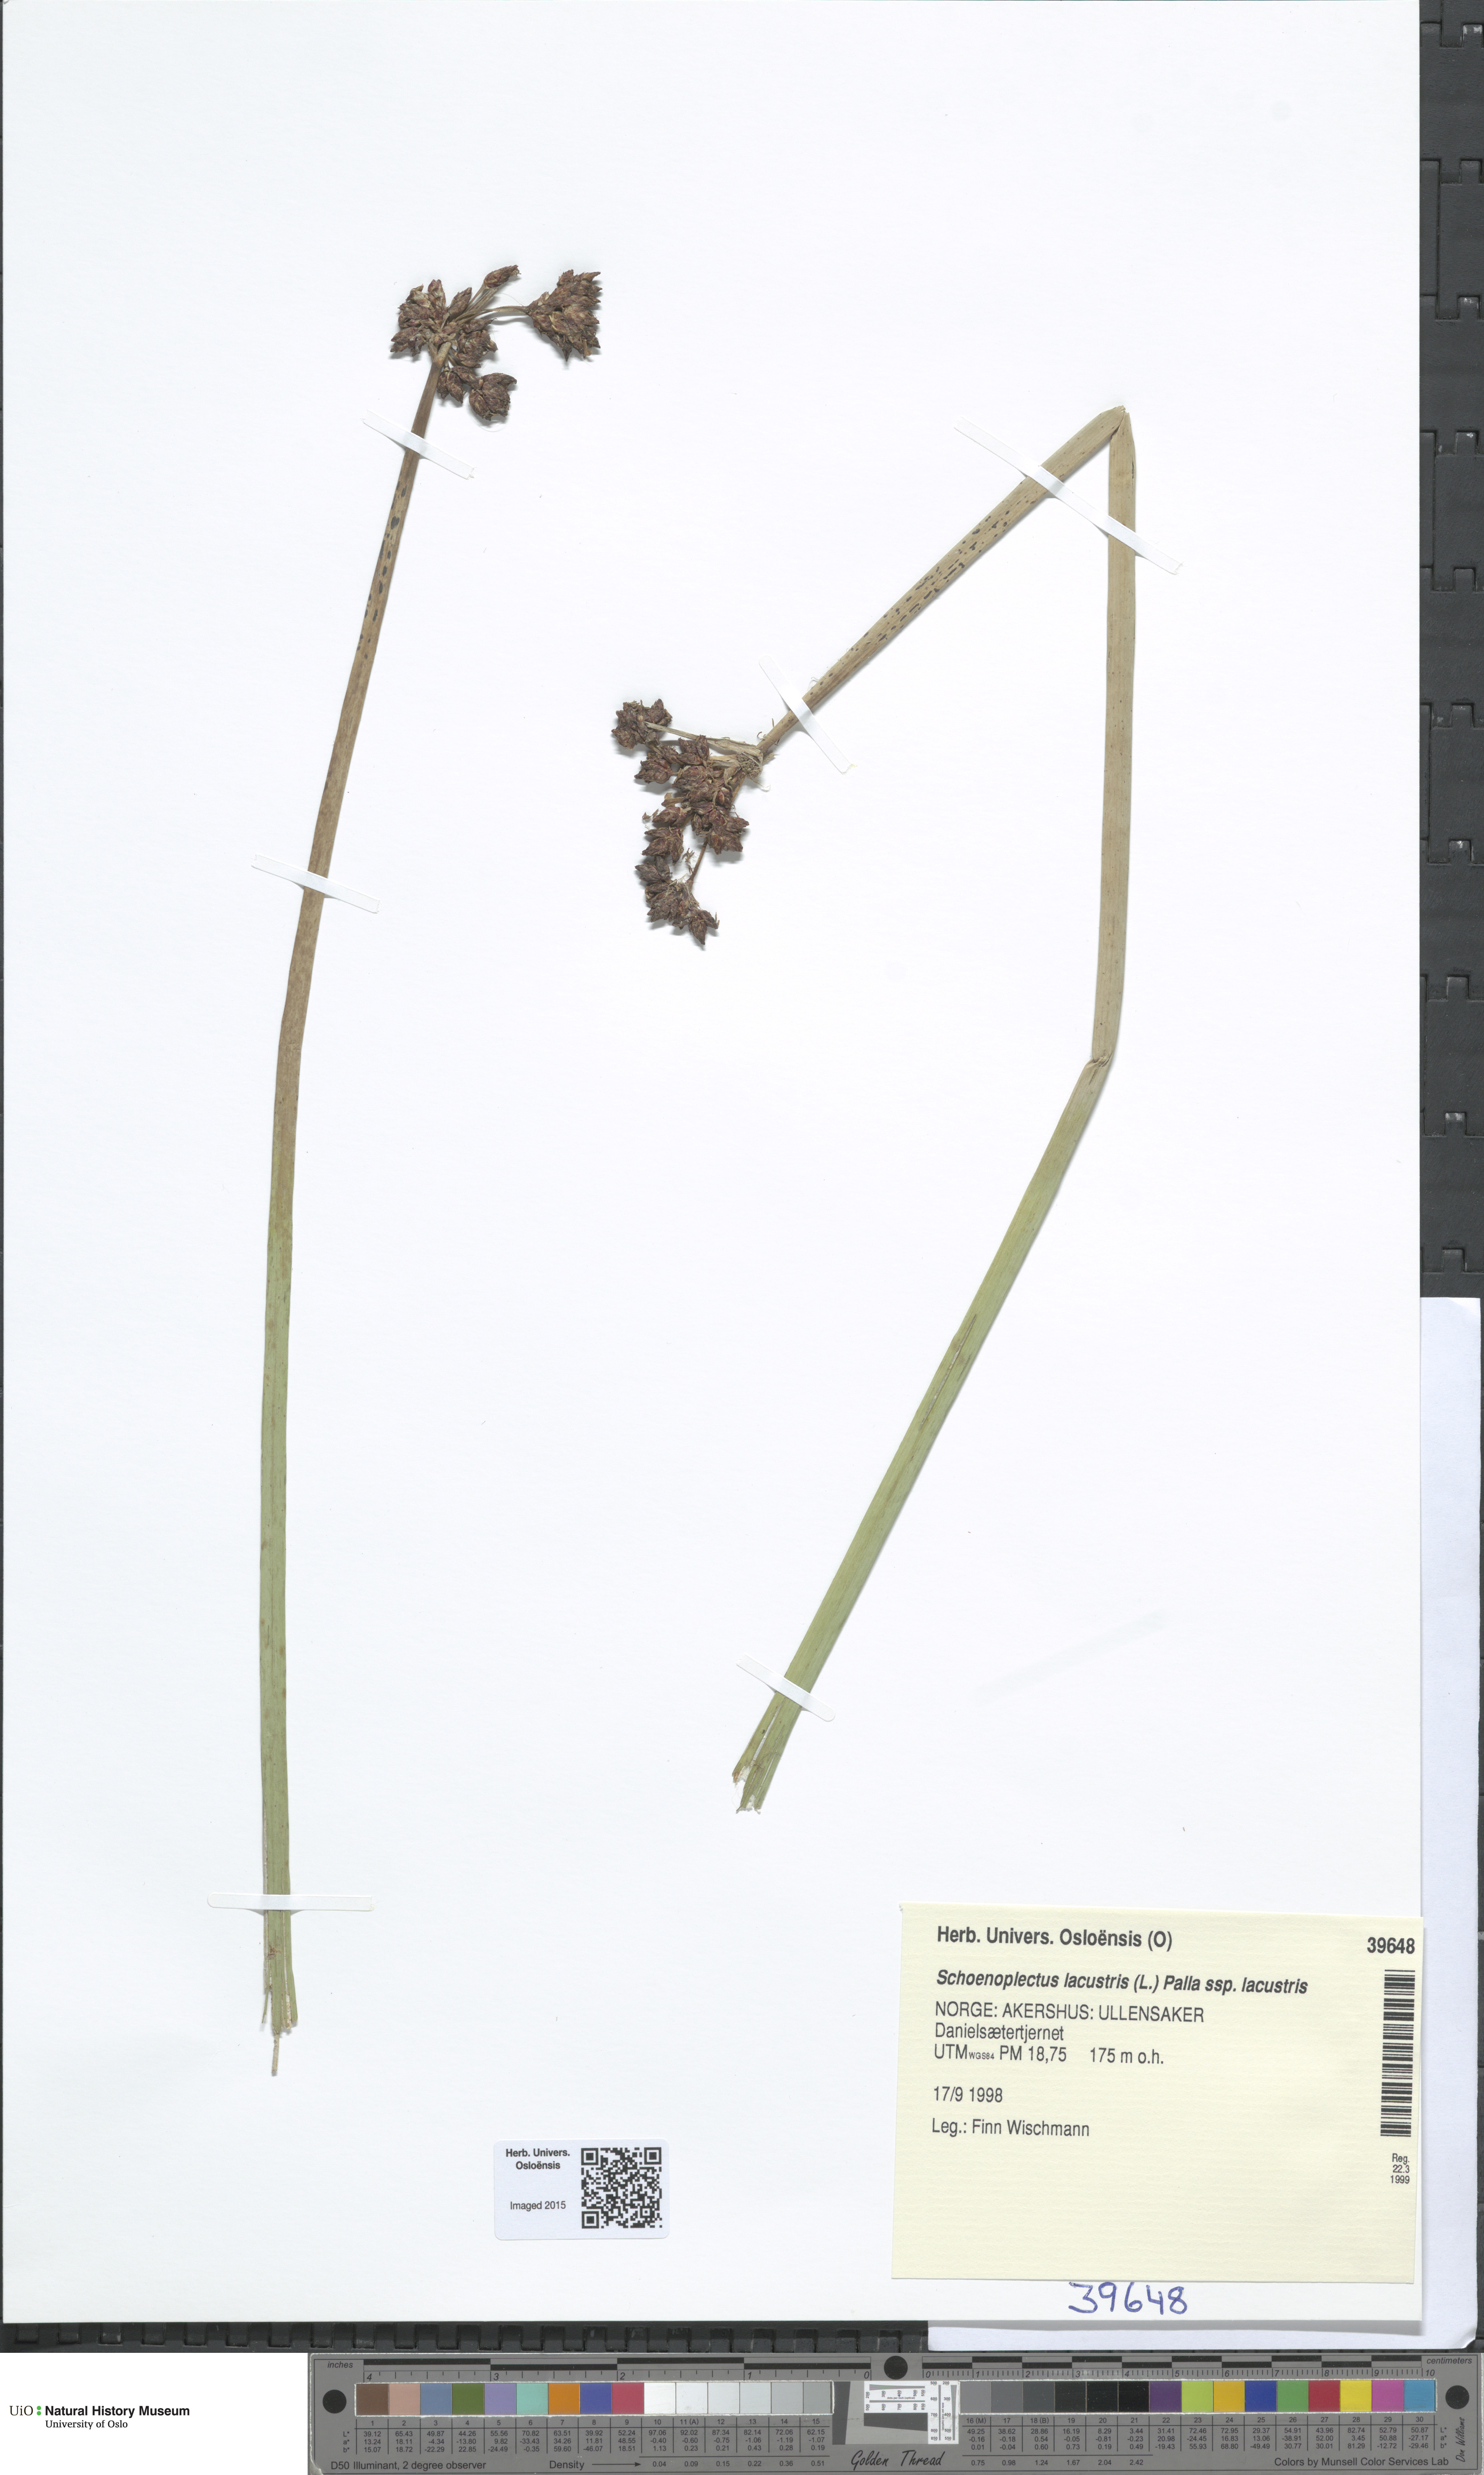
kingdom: Plantae
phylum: Tracheophyta
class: Liliopsida
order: Poales
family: Cyperaceae
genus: Schoenoplectus
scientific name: Schoenoplectus lacustris
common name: Common club-rush
